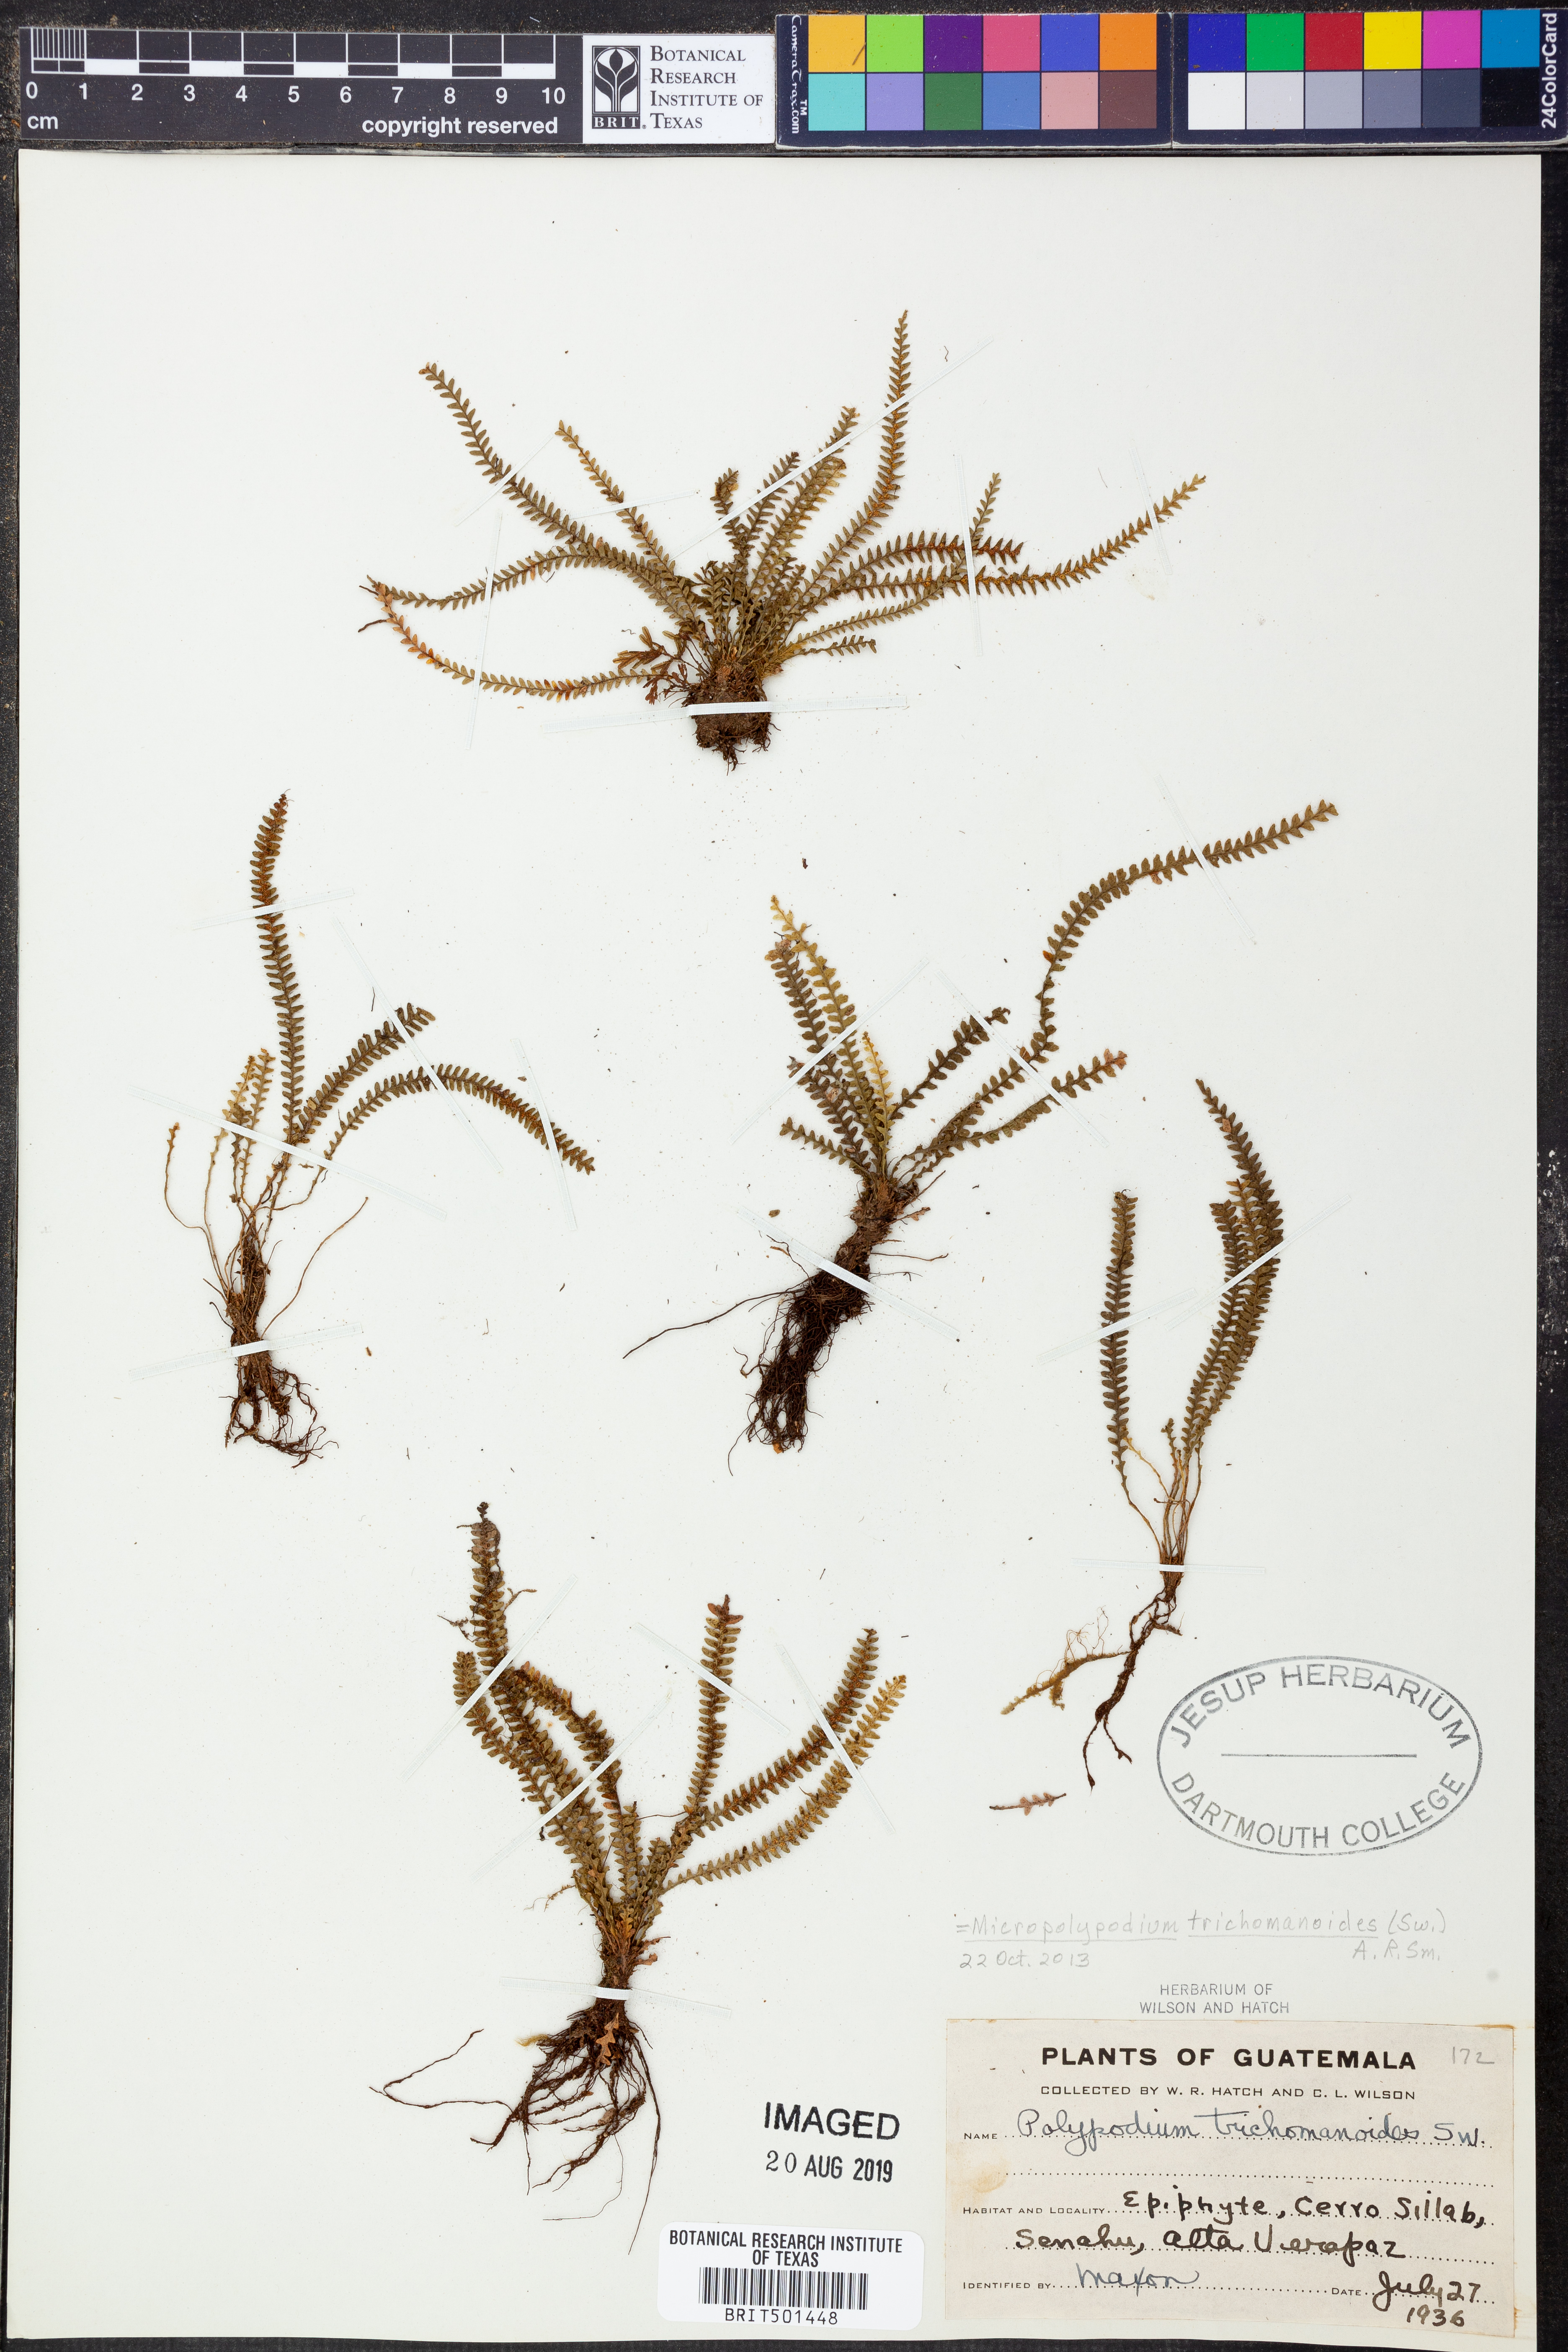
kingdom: Plantae
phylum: Tracheophyta
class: Polypodiopsida
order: Polypodiales
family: Polypodiaceae
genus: Moranopteris
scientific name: Moranopteris trichomanoides
